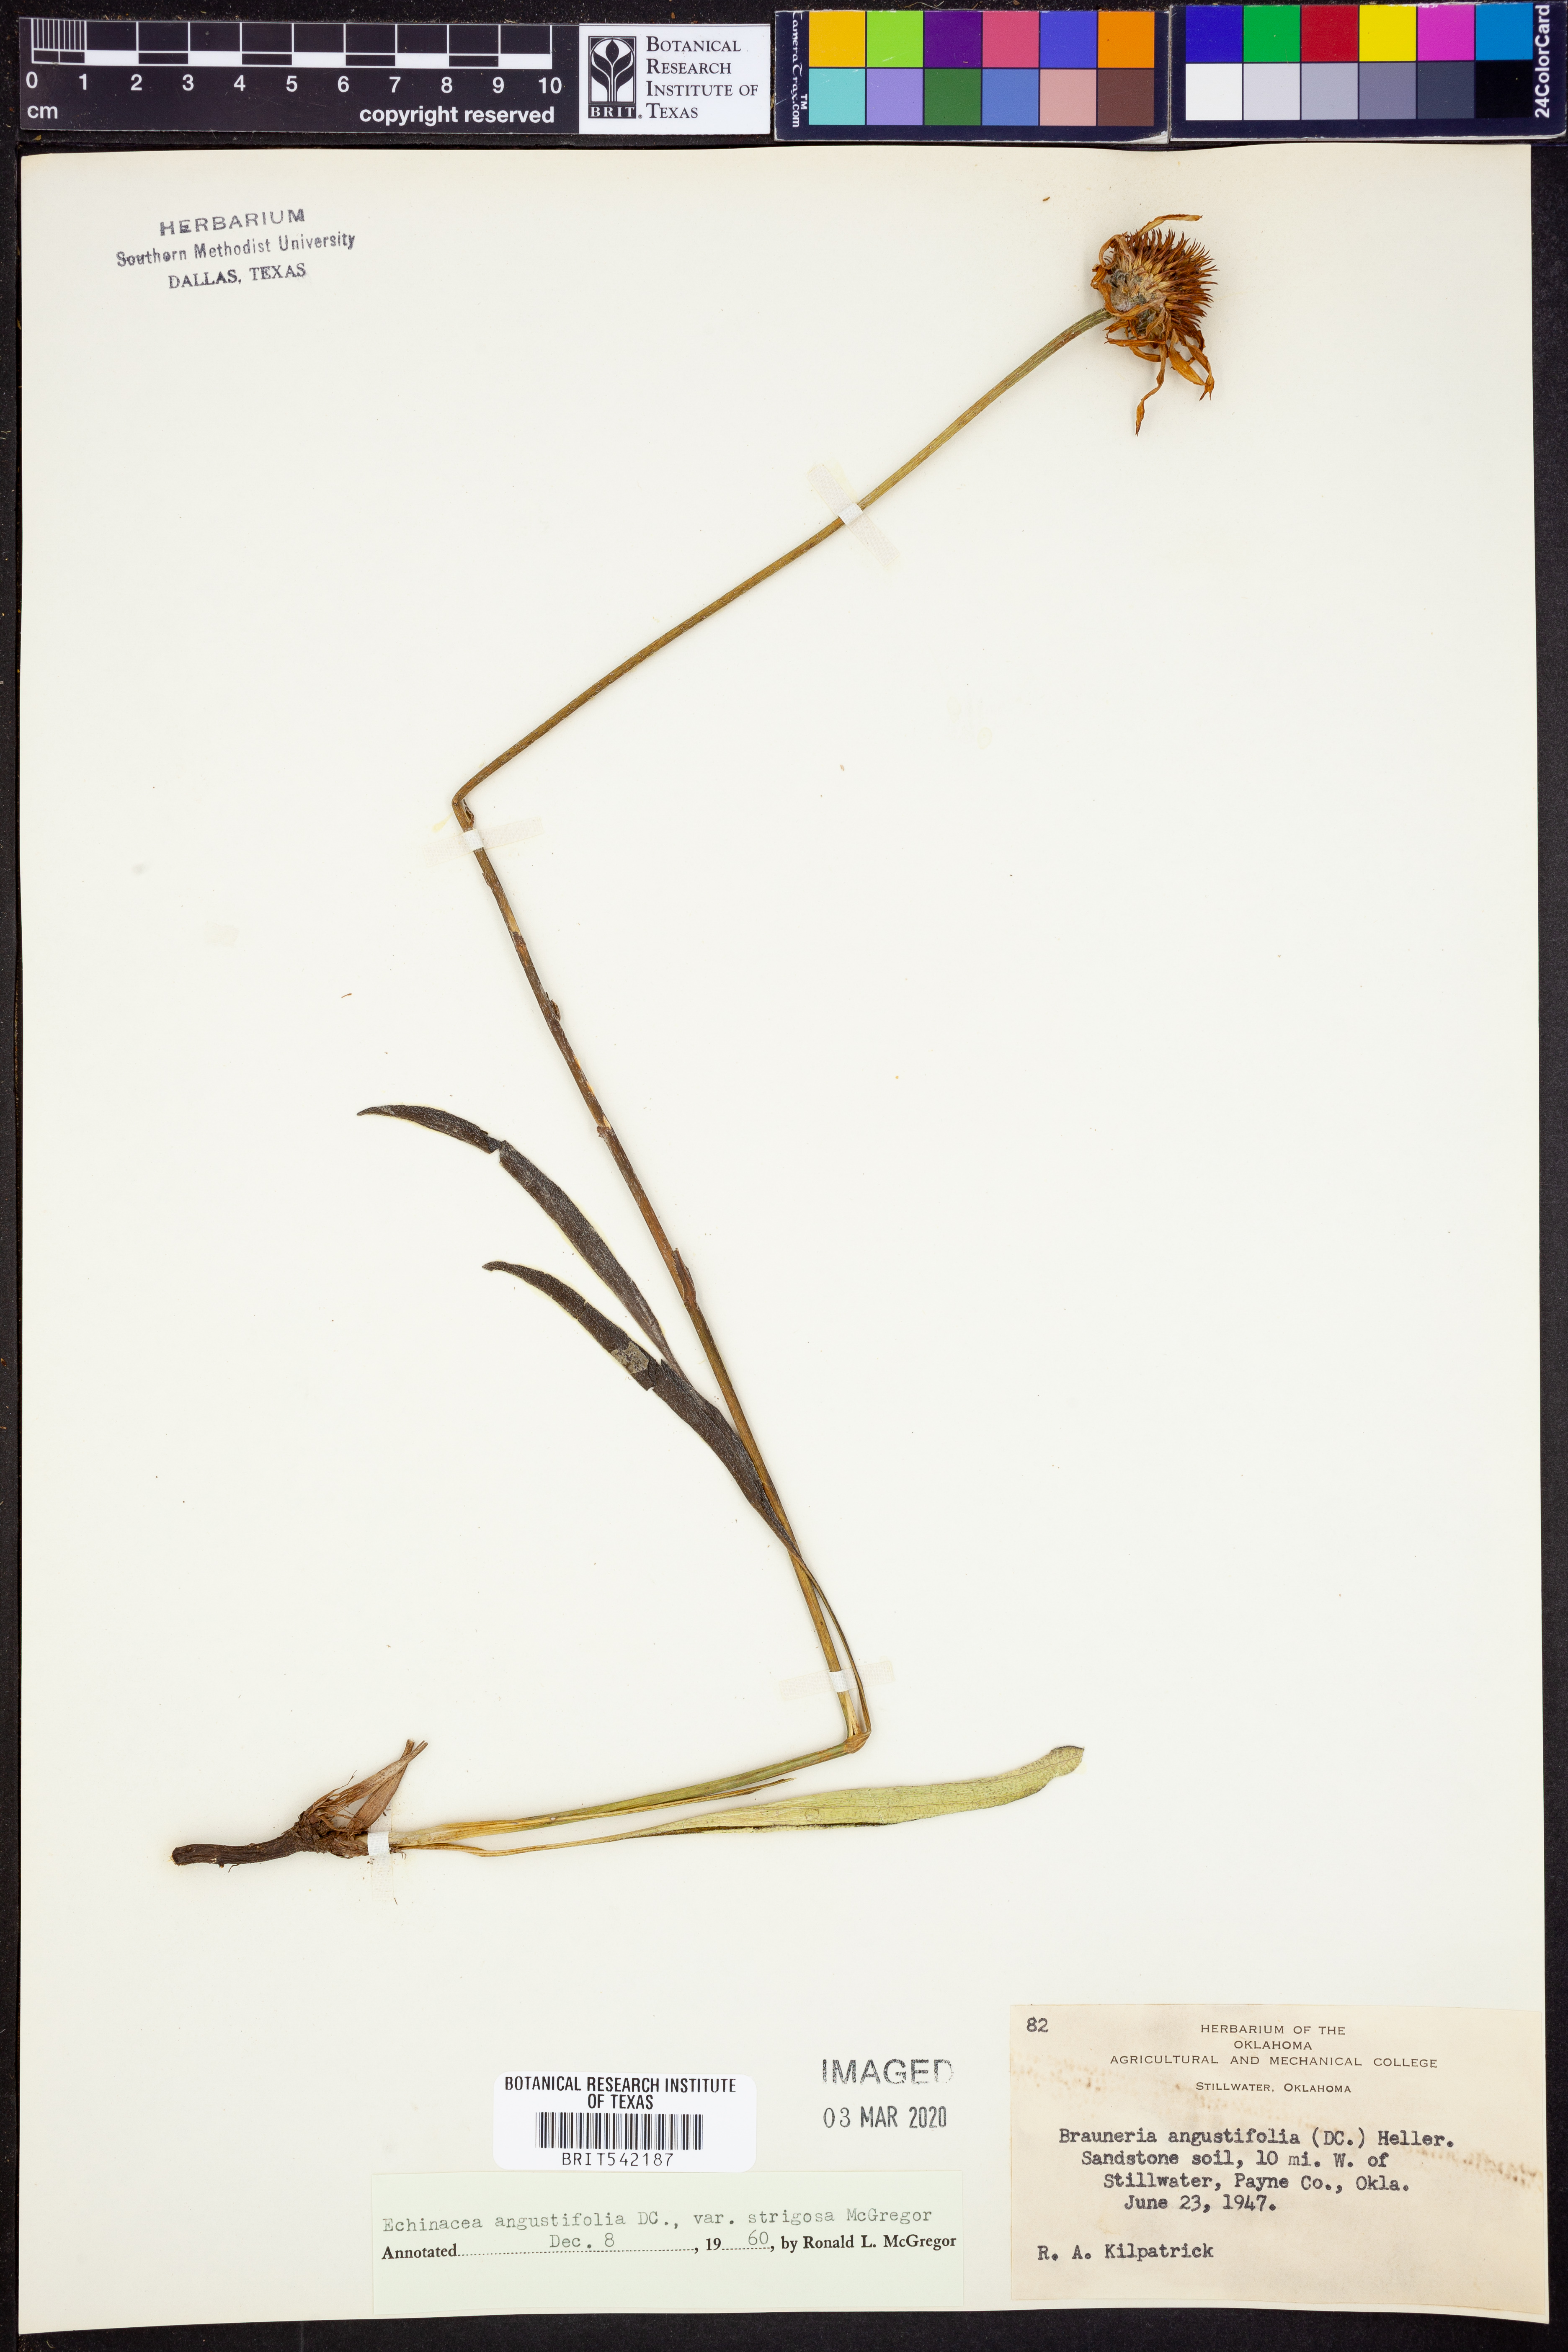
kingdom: Plantae
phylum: Tracheophyta
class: Magnoliopsida
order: Asterales
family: Asteraceae
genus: Echinacea
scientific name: Echinacea angustifolia
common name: Black-sampson echinacea
